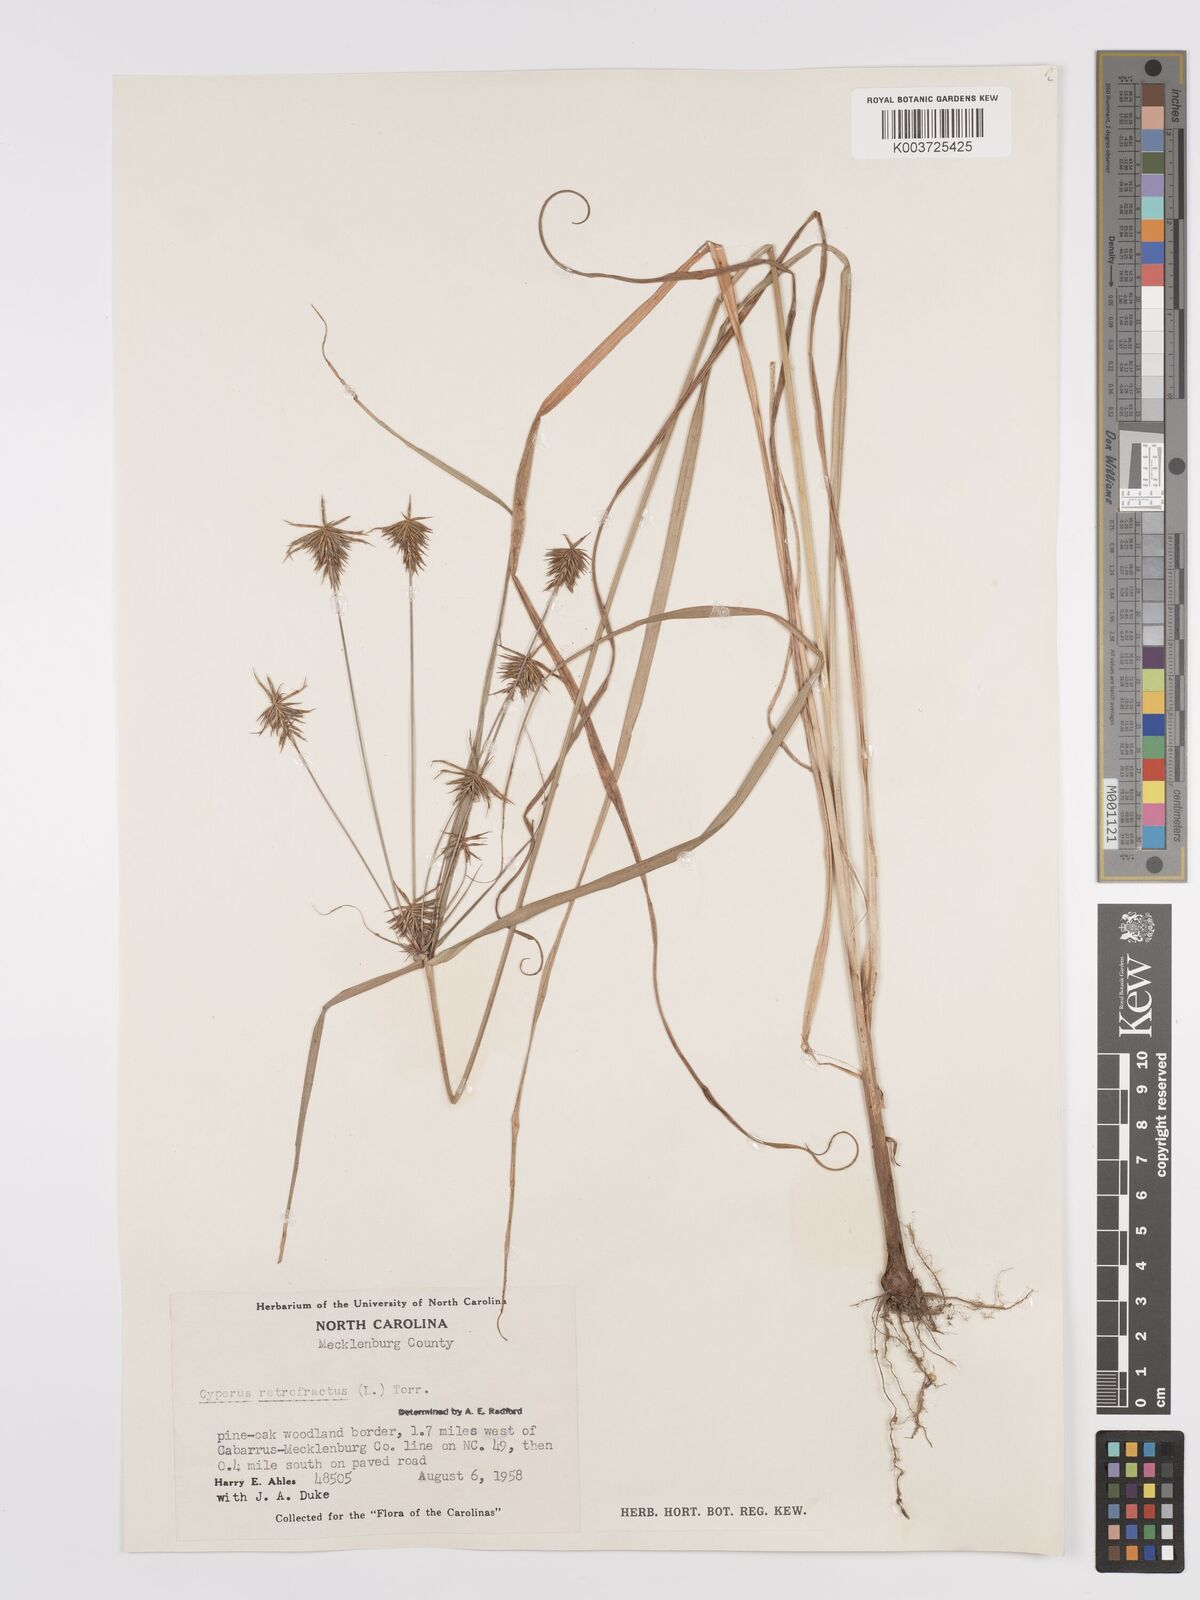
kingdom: Plantae
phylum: Tracheophyta
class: Liliopsida
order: Poales
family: Cyperaceae
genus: Cyperus
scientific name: Cyperus retrofractus
